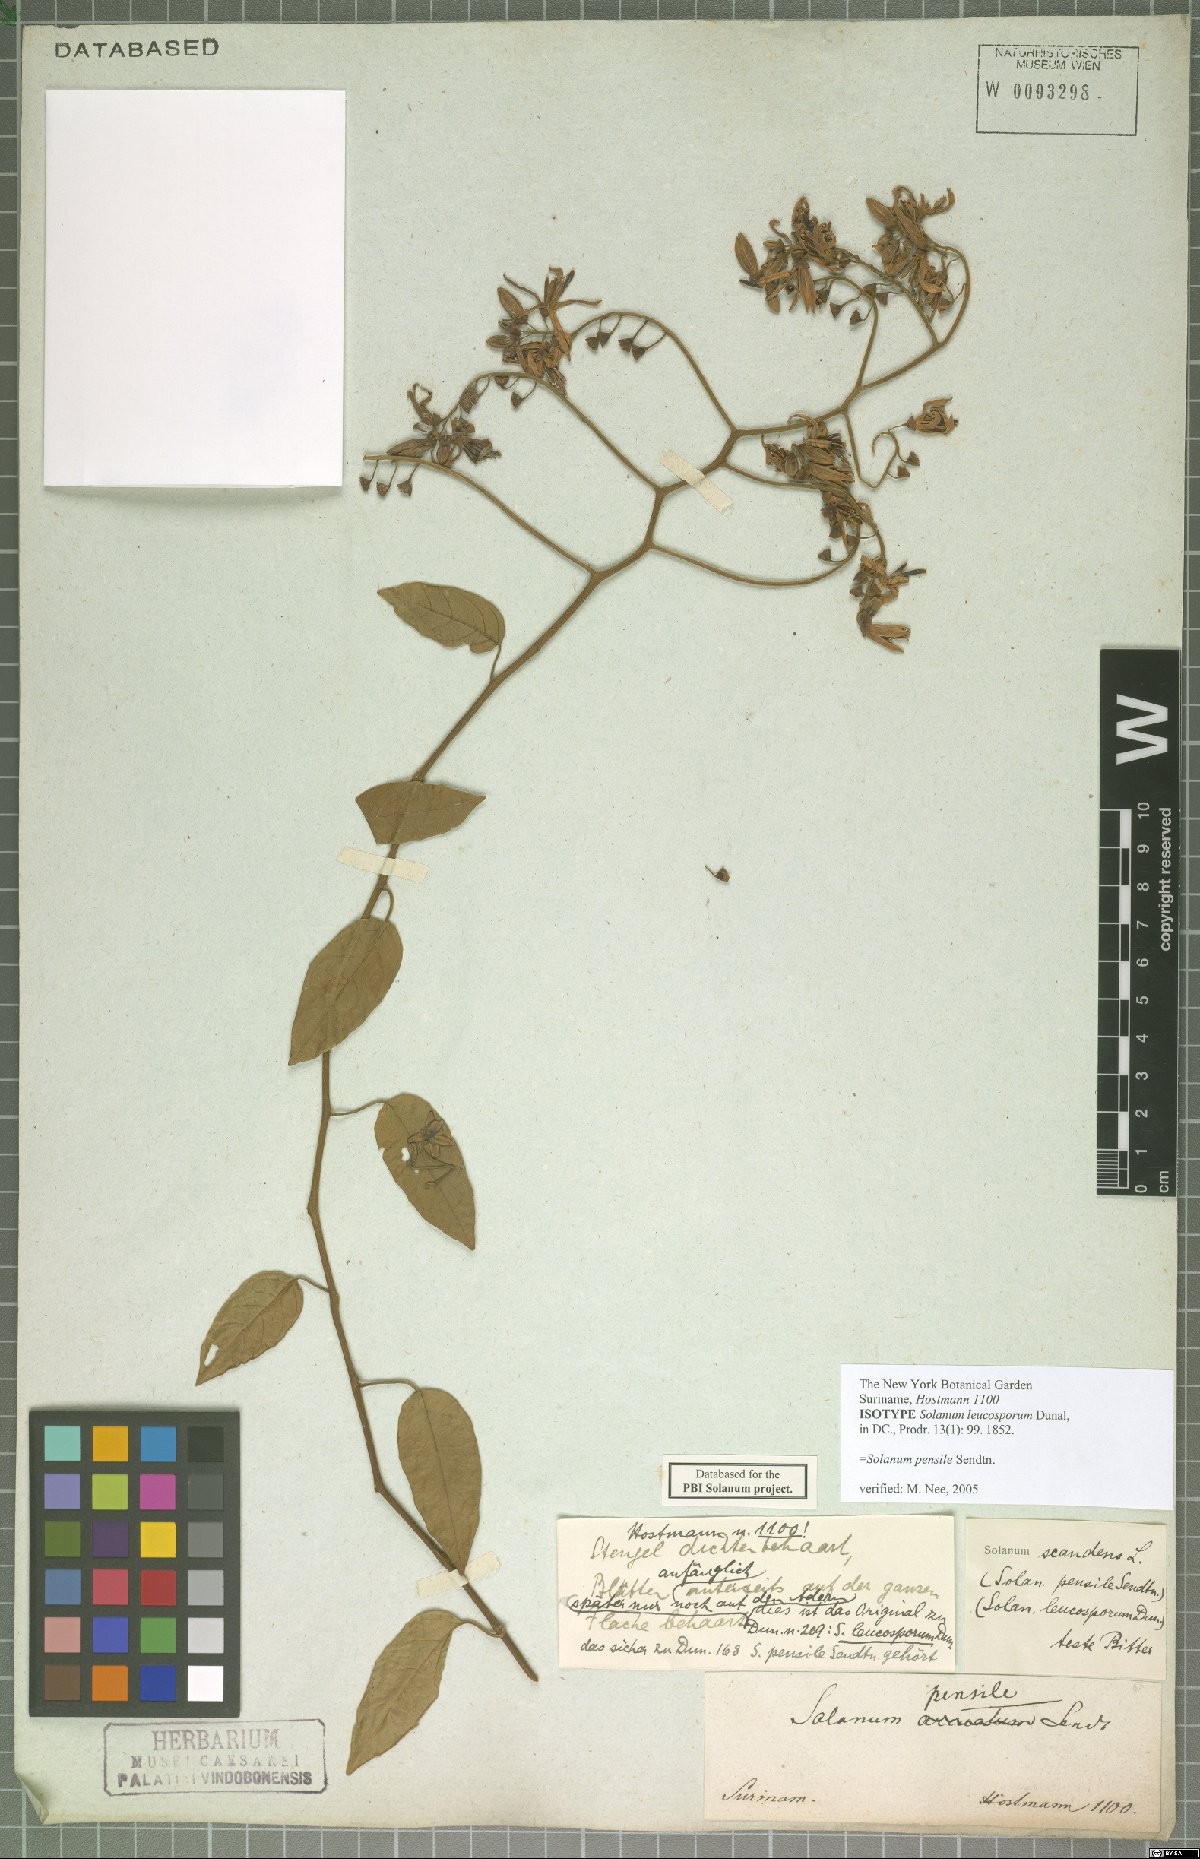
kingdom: Plantae
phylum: Tracheophyta
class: Magnoliopsida
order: Solanales
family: Solanaceae
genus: Solanum
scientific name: Solanum uncinellum
